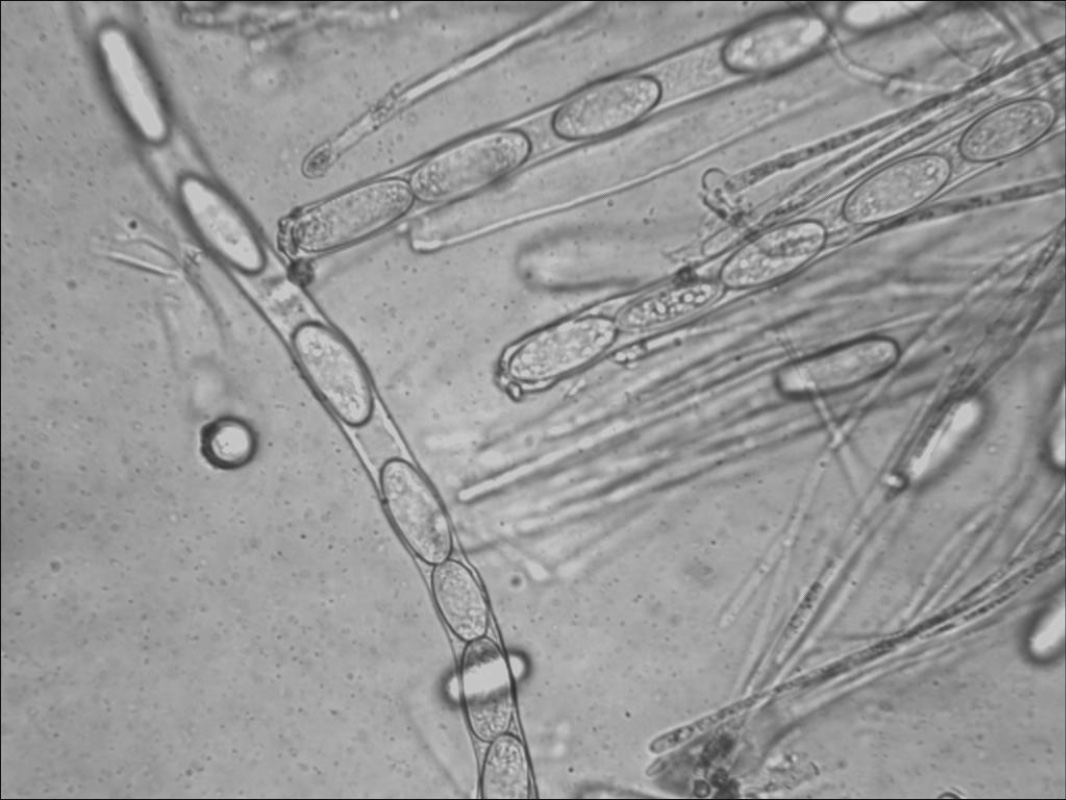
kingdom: Fungi
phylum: Ascomycota
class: Pezizomycetes
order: Pezizales
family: Sarcoscyphaceae
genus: Sarcoscypha
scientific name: Sarcoscypha coccinea
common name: skarlagen-pragtbæger
